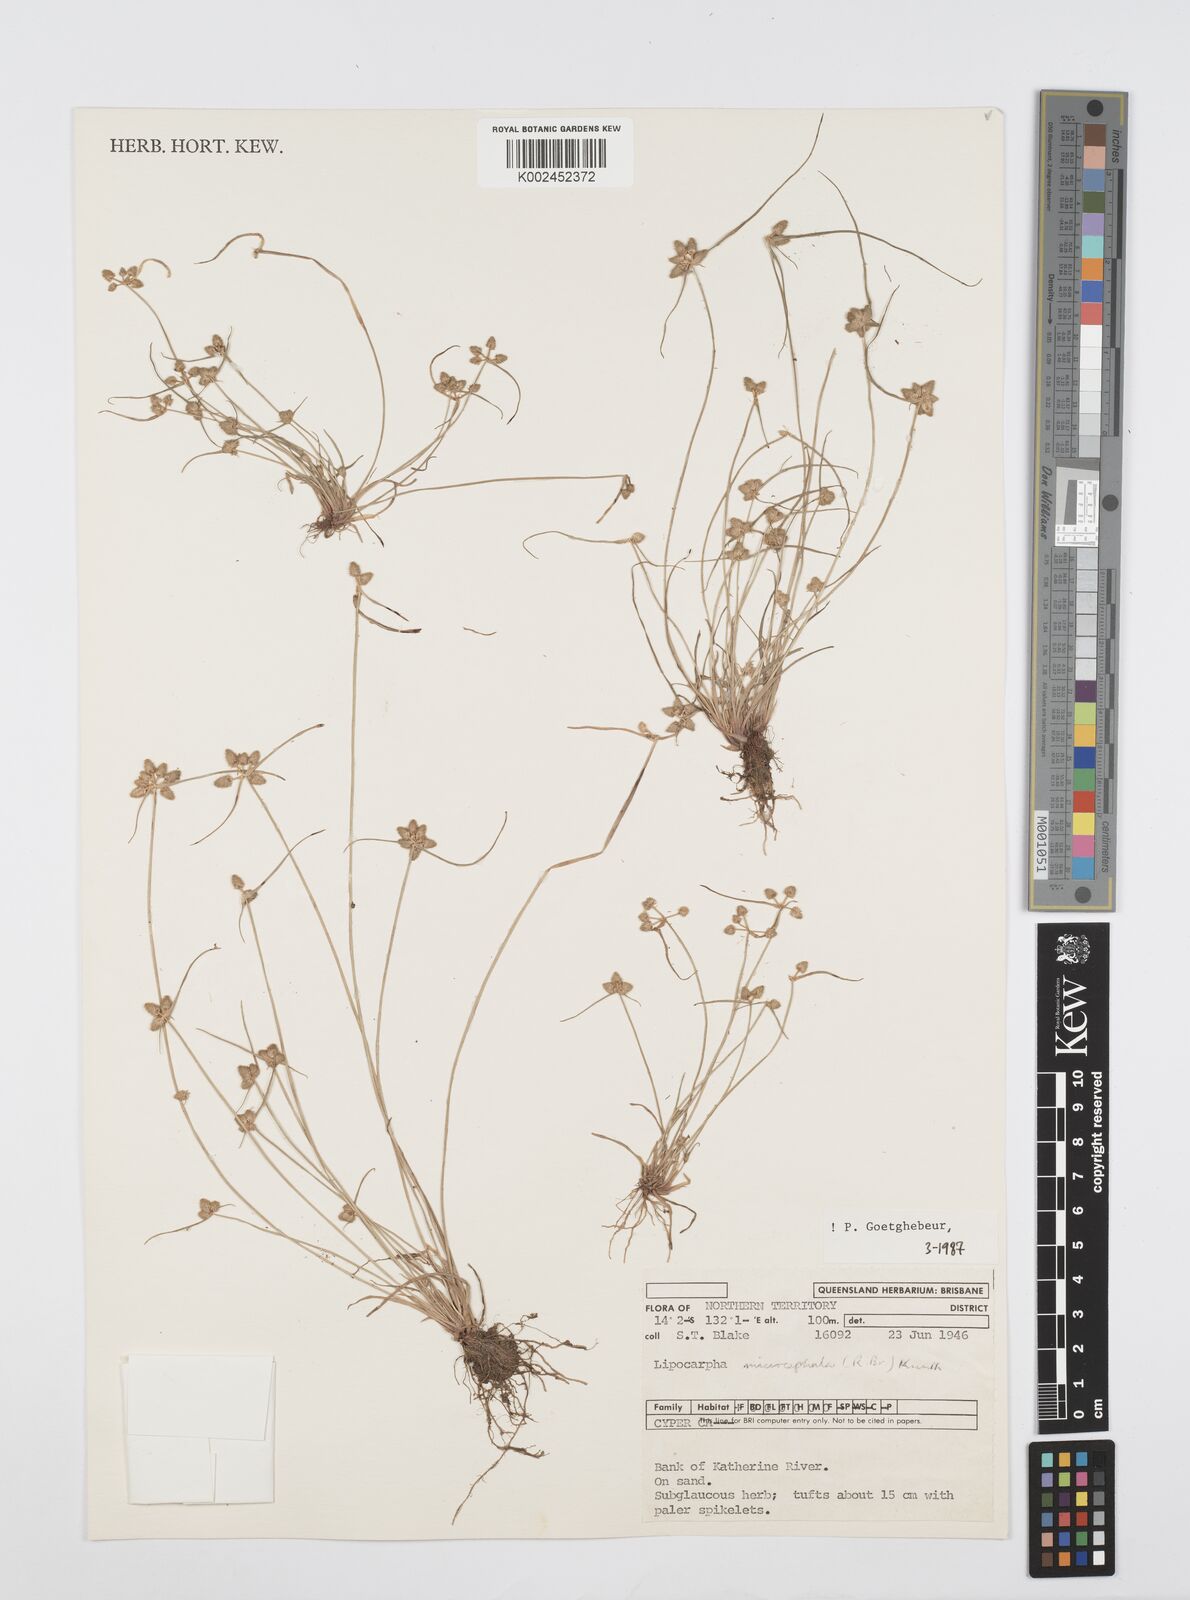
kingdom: Plantae
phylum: Tracheophyta
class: Liliopsida
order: Poales
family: Cyperaceae
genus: Cyperus
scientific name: Cyperus microcephalus
